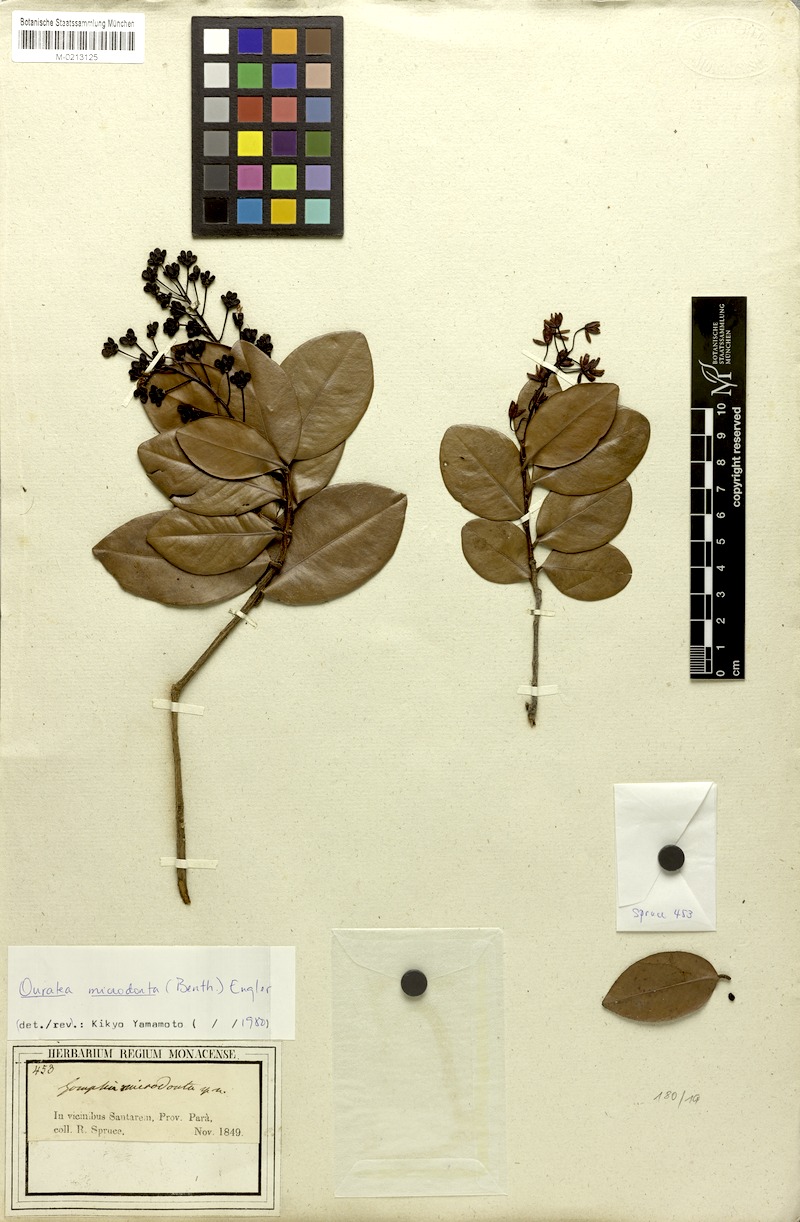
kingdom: Plantae
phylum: Tracheophyta
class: Magnoliopsida
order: Malpighiales
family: Ochnaceae
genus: Ouratea
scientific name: Ouratea microdonta
